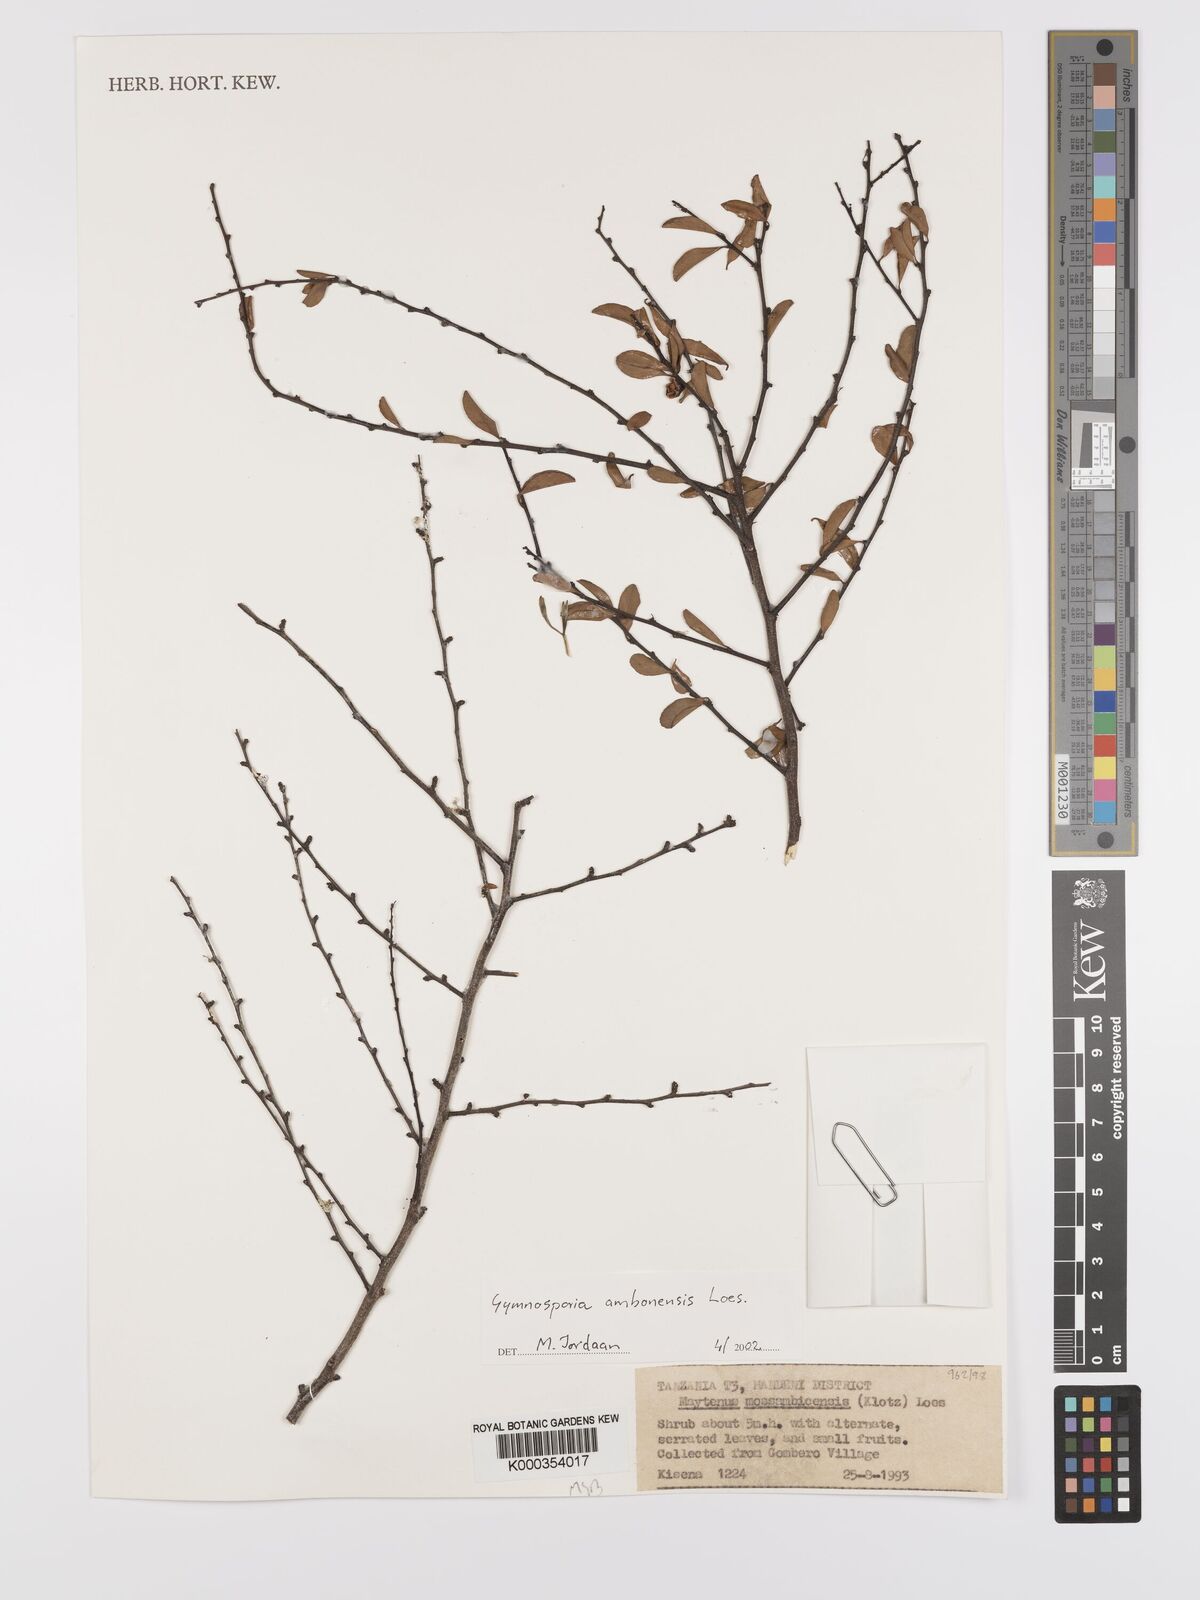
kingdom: Plantae
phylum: Tracheophyta
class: Magnoliopsida
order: Celastrales
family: Celastraceae
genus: Gymnosporia
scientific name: Gymnosporia
